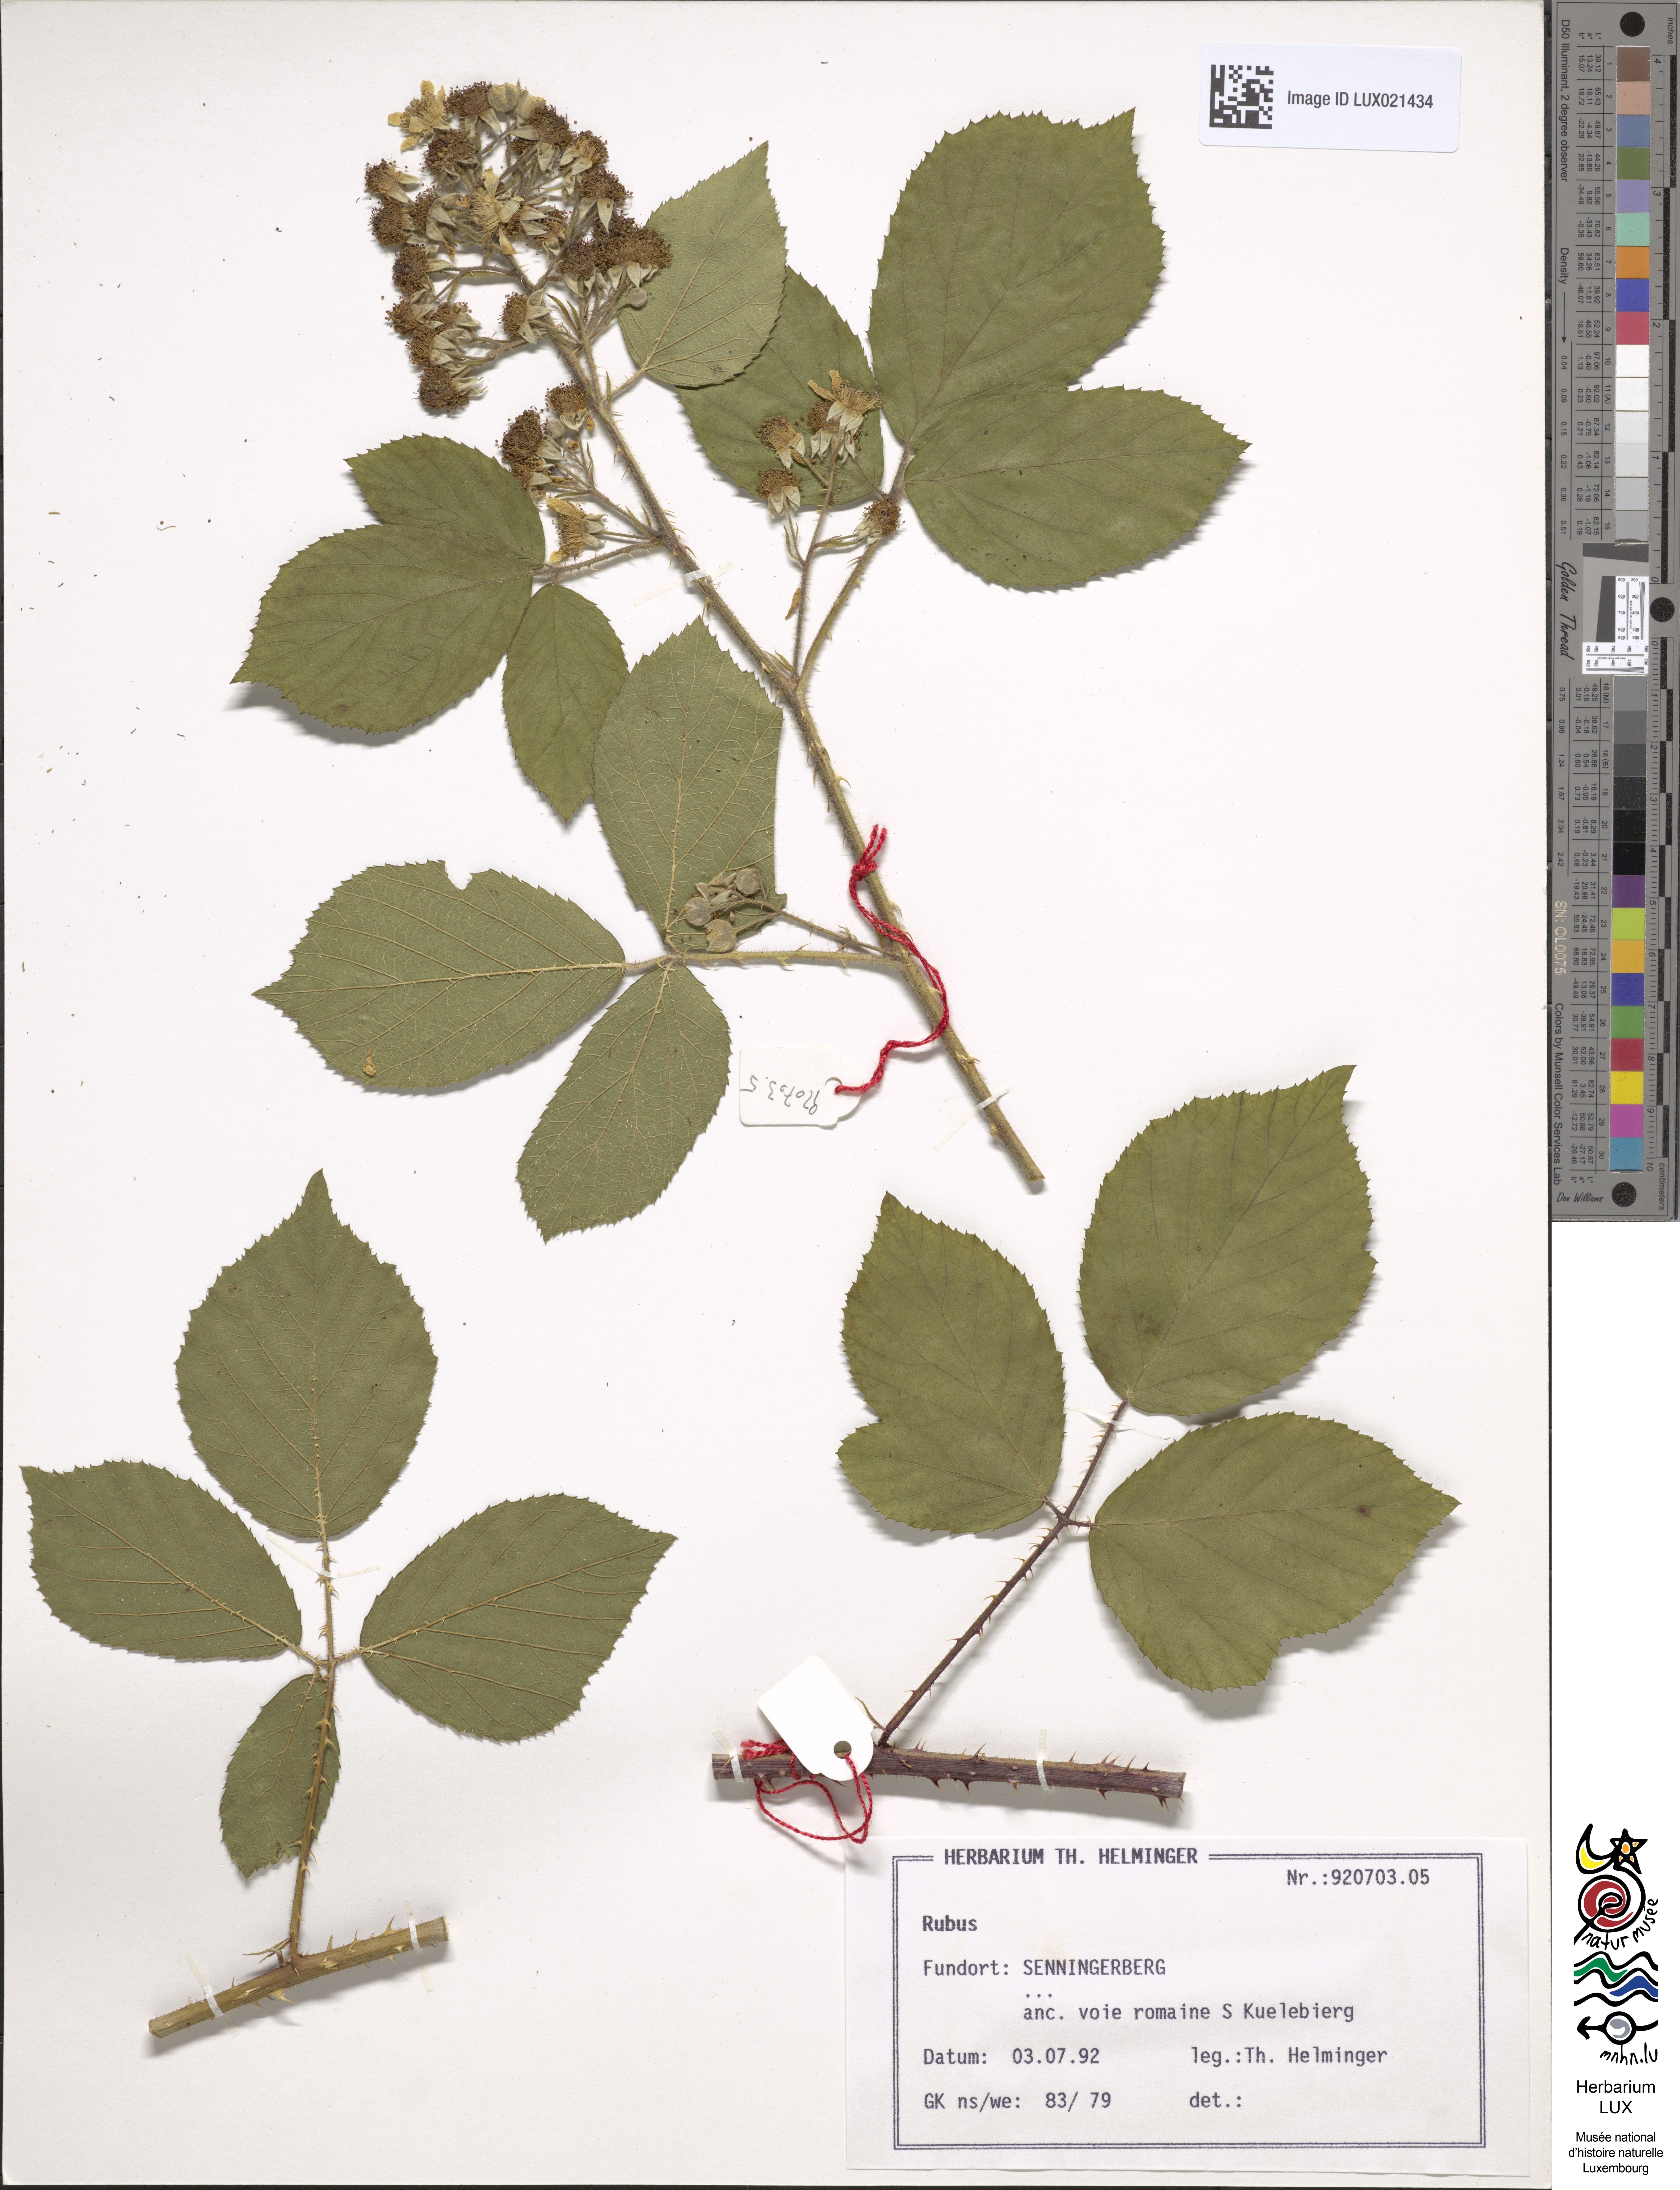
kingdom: Plantae
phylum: Tracheophyta
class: Magnoliopsida
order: Rosales
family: Rosaceae
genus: Rubus
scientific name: Rubus
